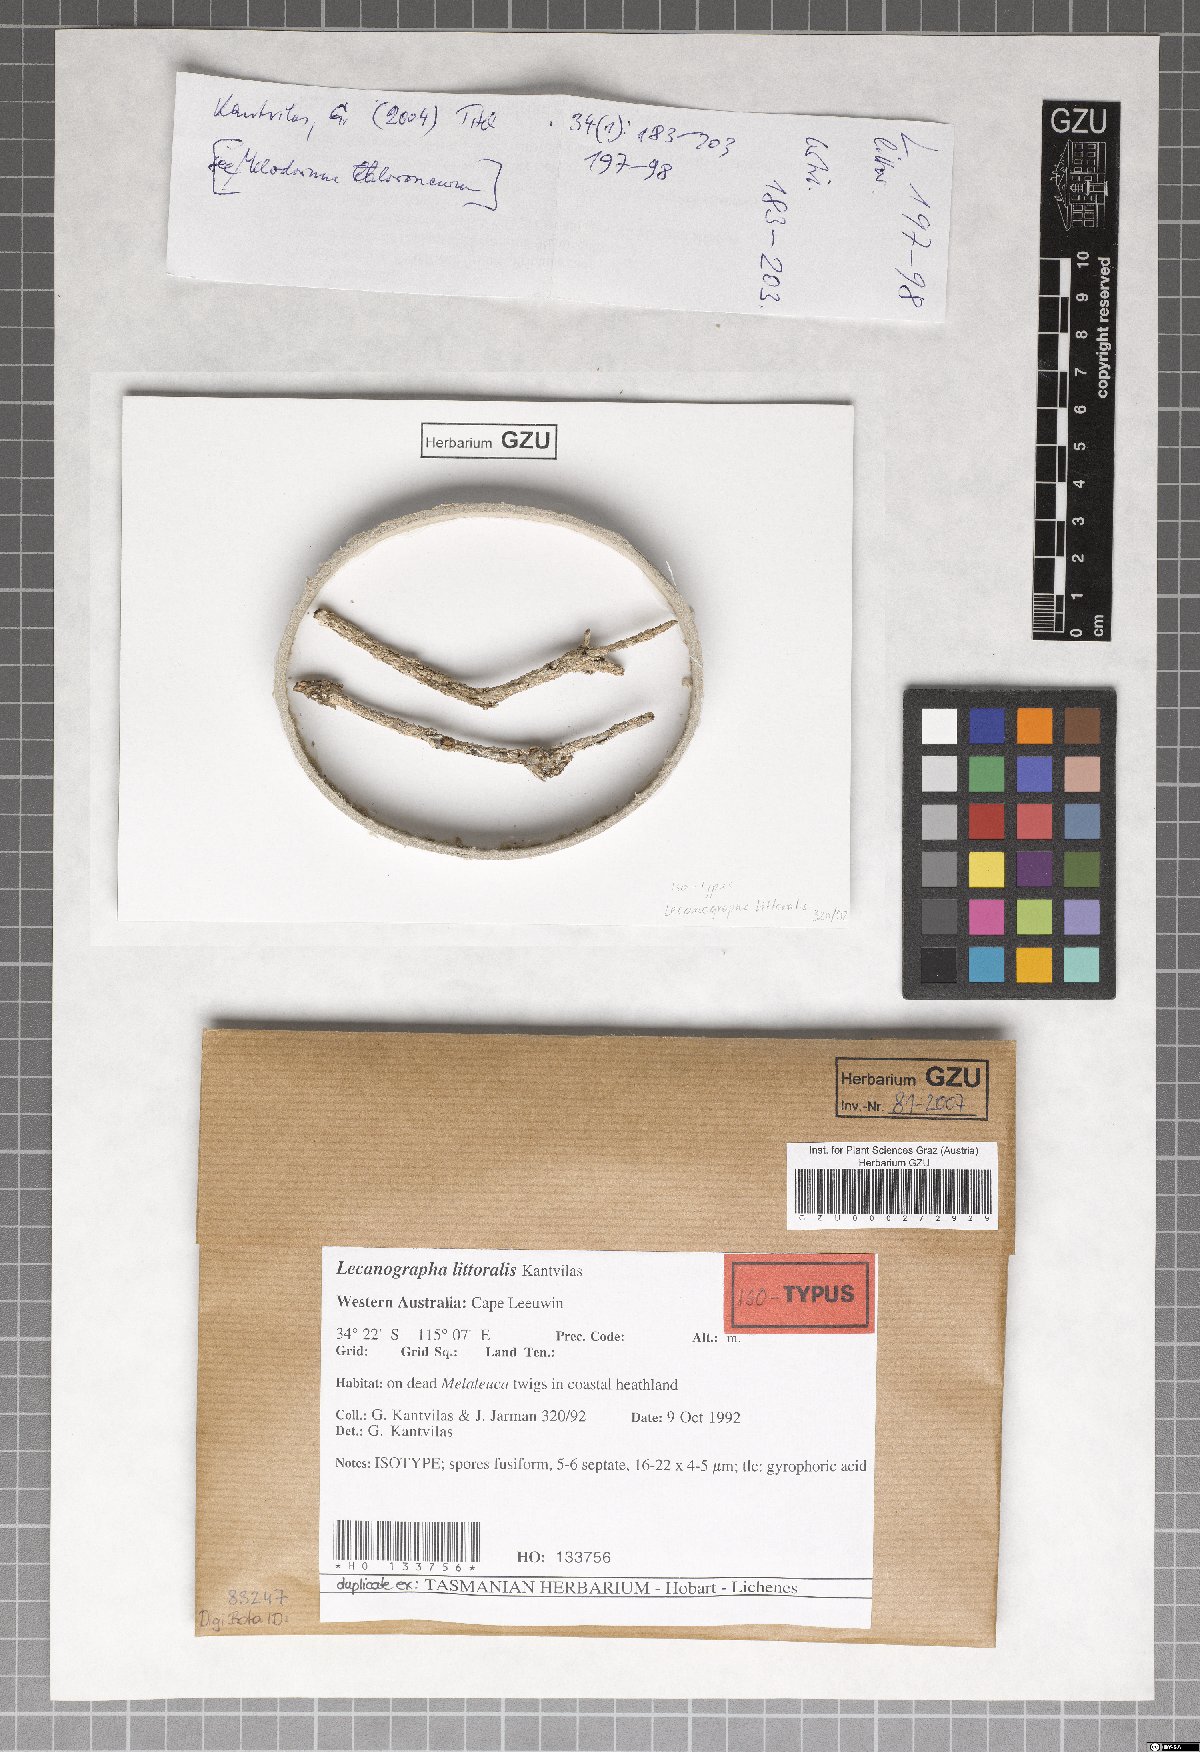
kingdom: Fungi
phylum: Ascomycota
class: Arthoniomycetes
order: Arthoniales
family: Roccellaceae
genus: Angiactis
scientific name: Angiactis littoralis
